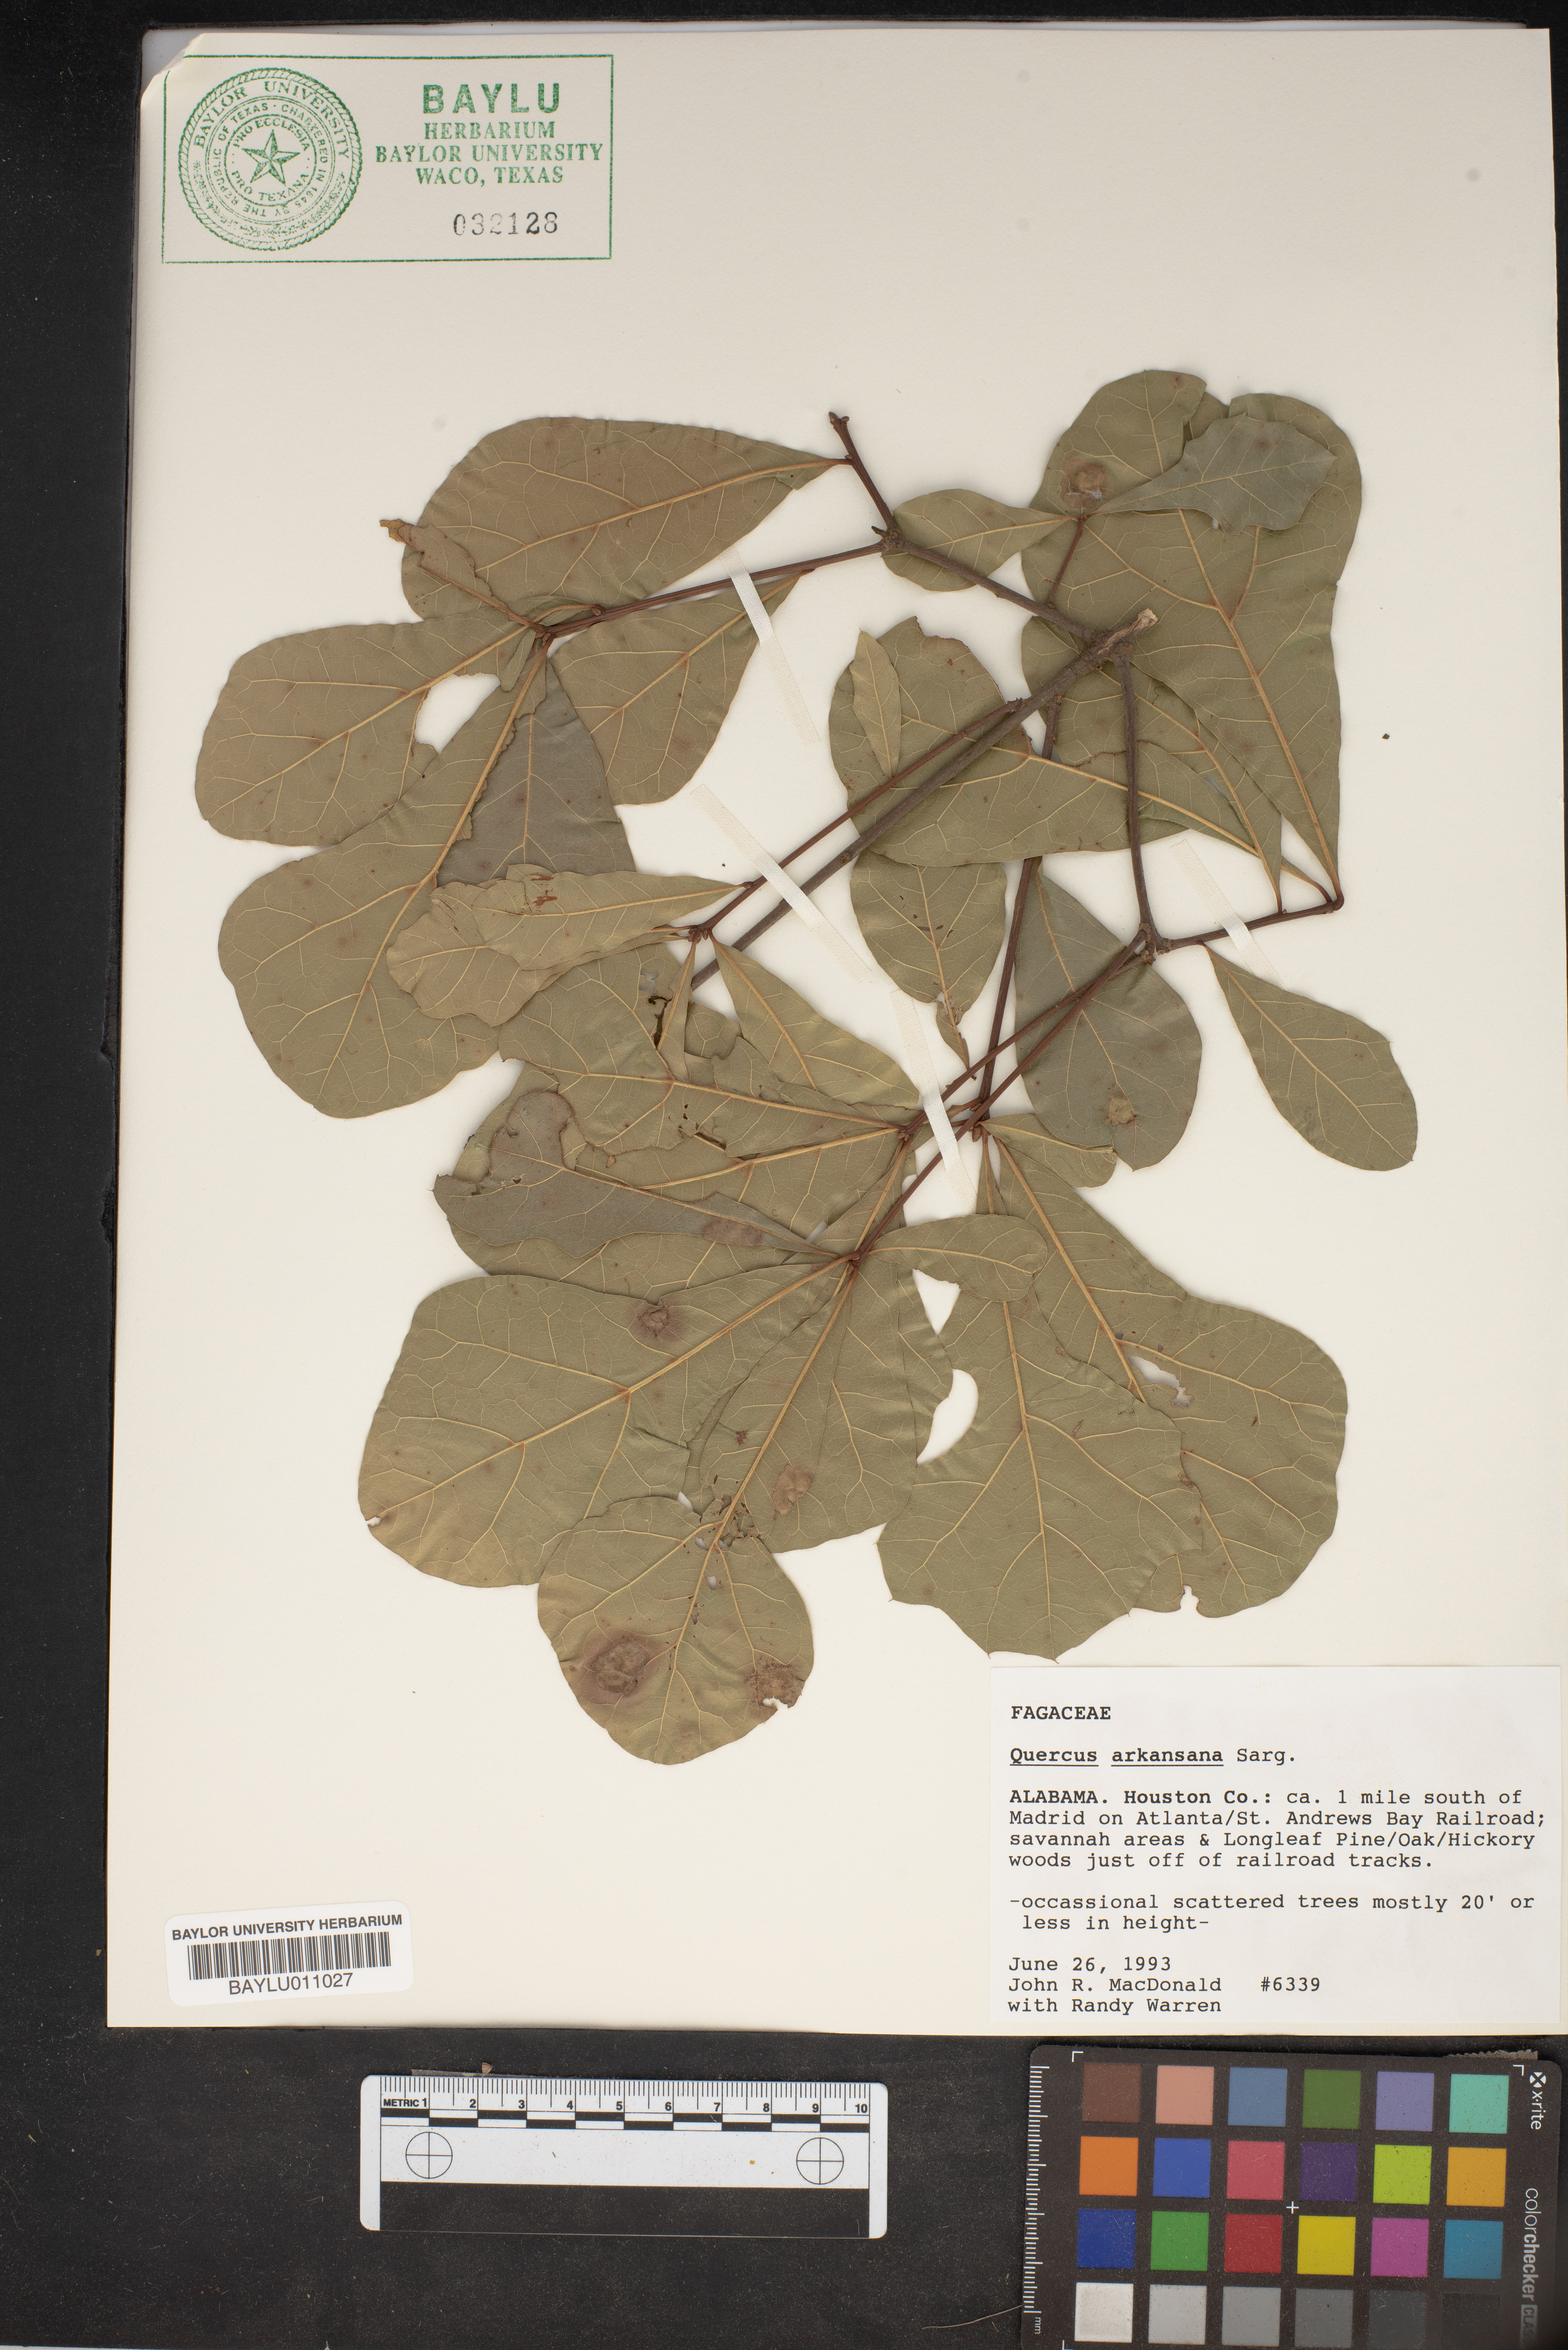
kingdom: Plantae
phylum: Tracheophyta
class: Magnoliopsida
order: Fagales
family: Fagaceae
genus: Quercus
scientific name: Quercus arkansana
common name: Arkansas oak
